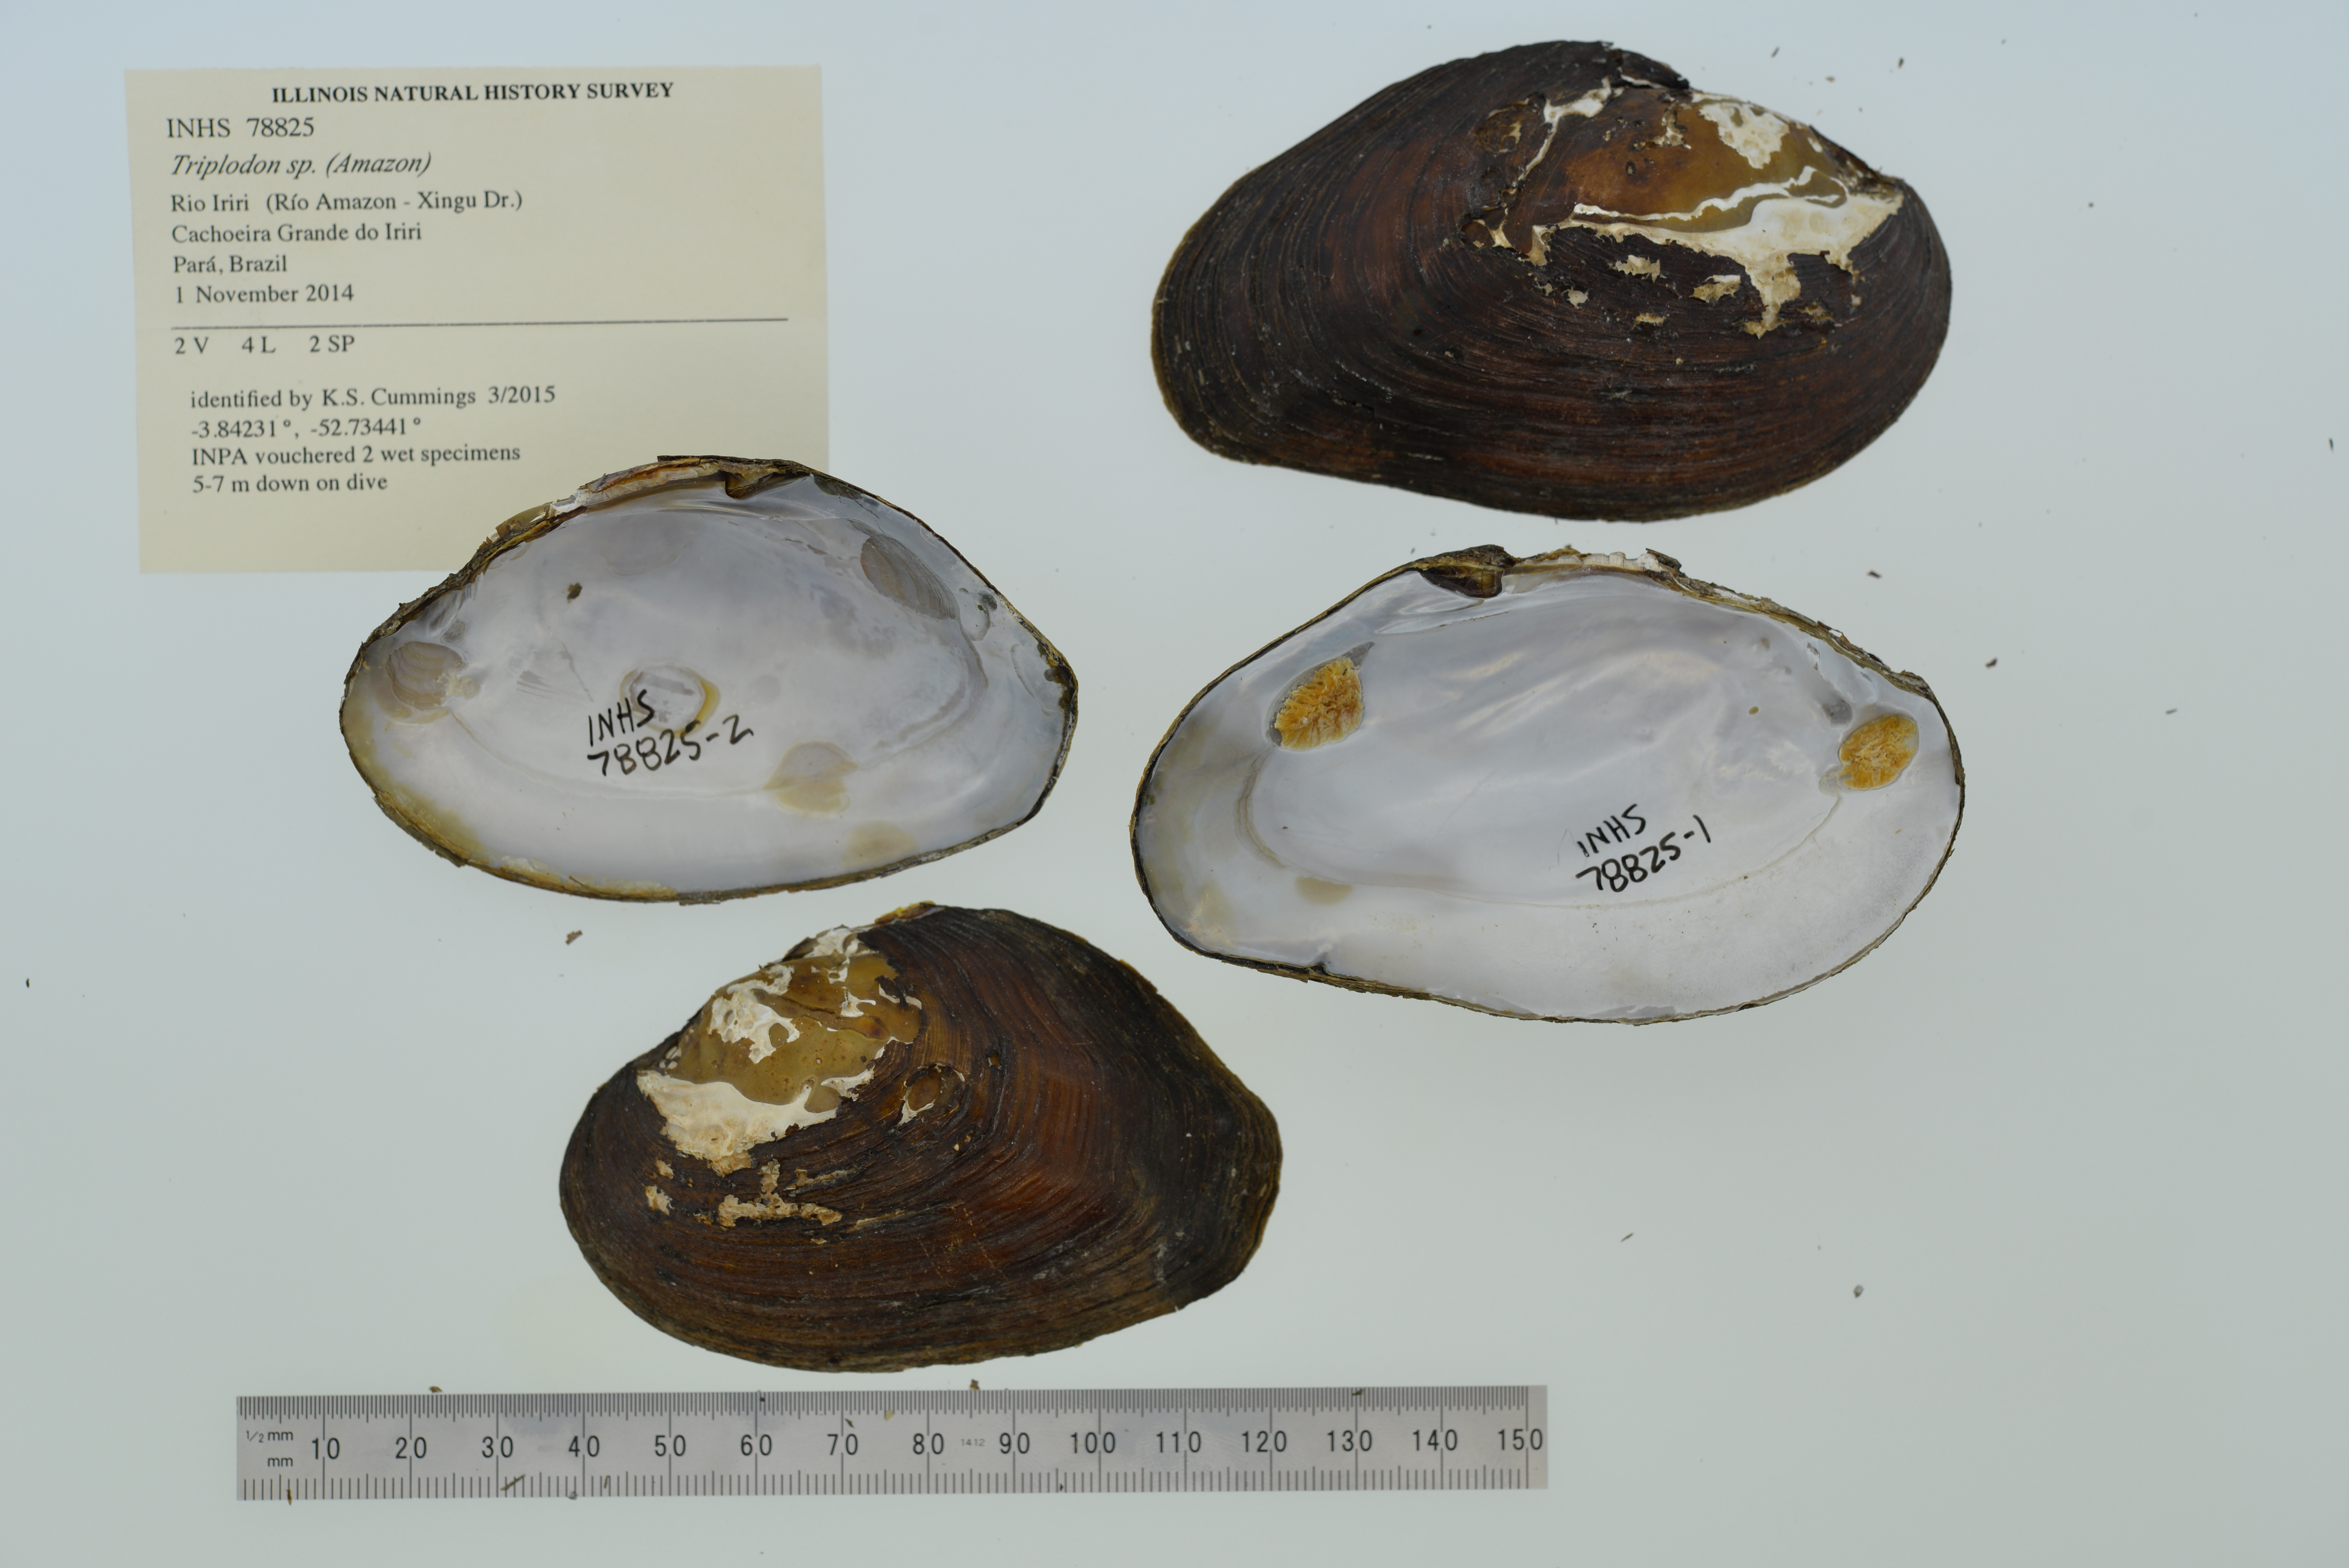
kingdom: Animalia
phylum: Mollusca
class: Bivalvia
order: Unionida
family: Hyriidae
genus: Diplodon
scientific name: Diplodon
